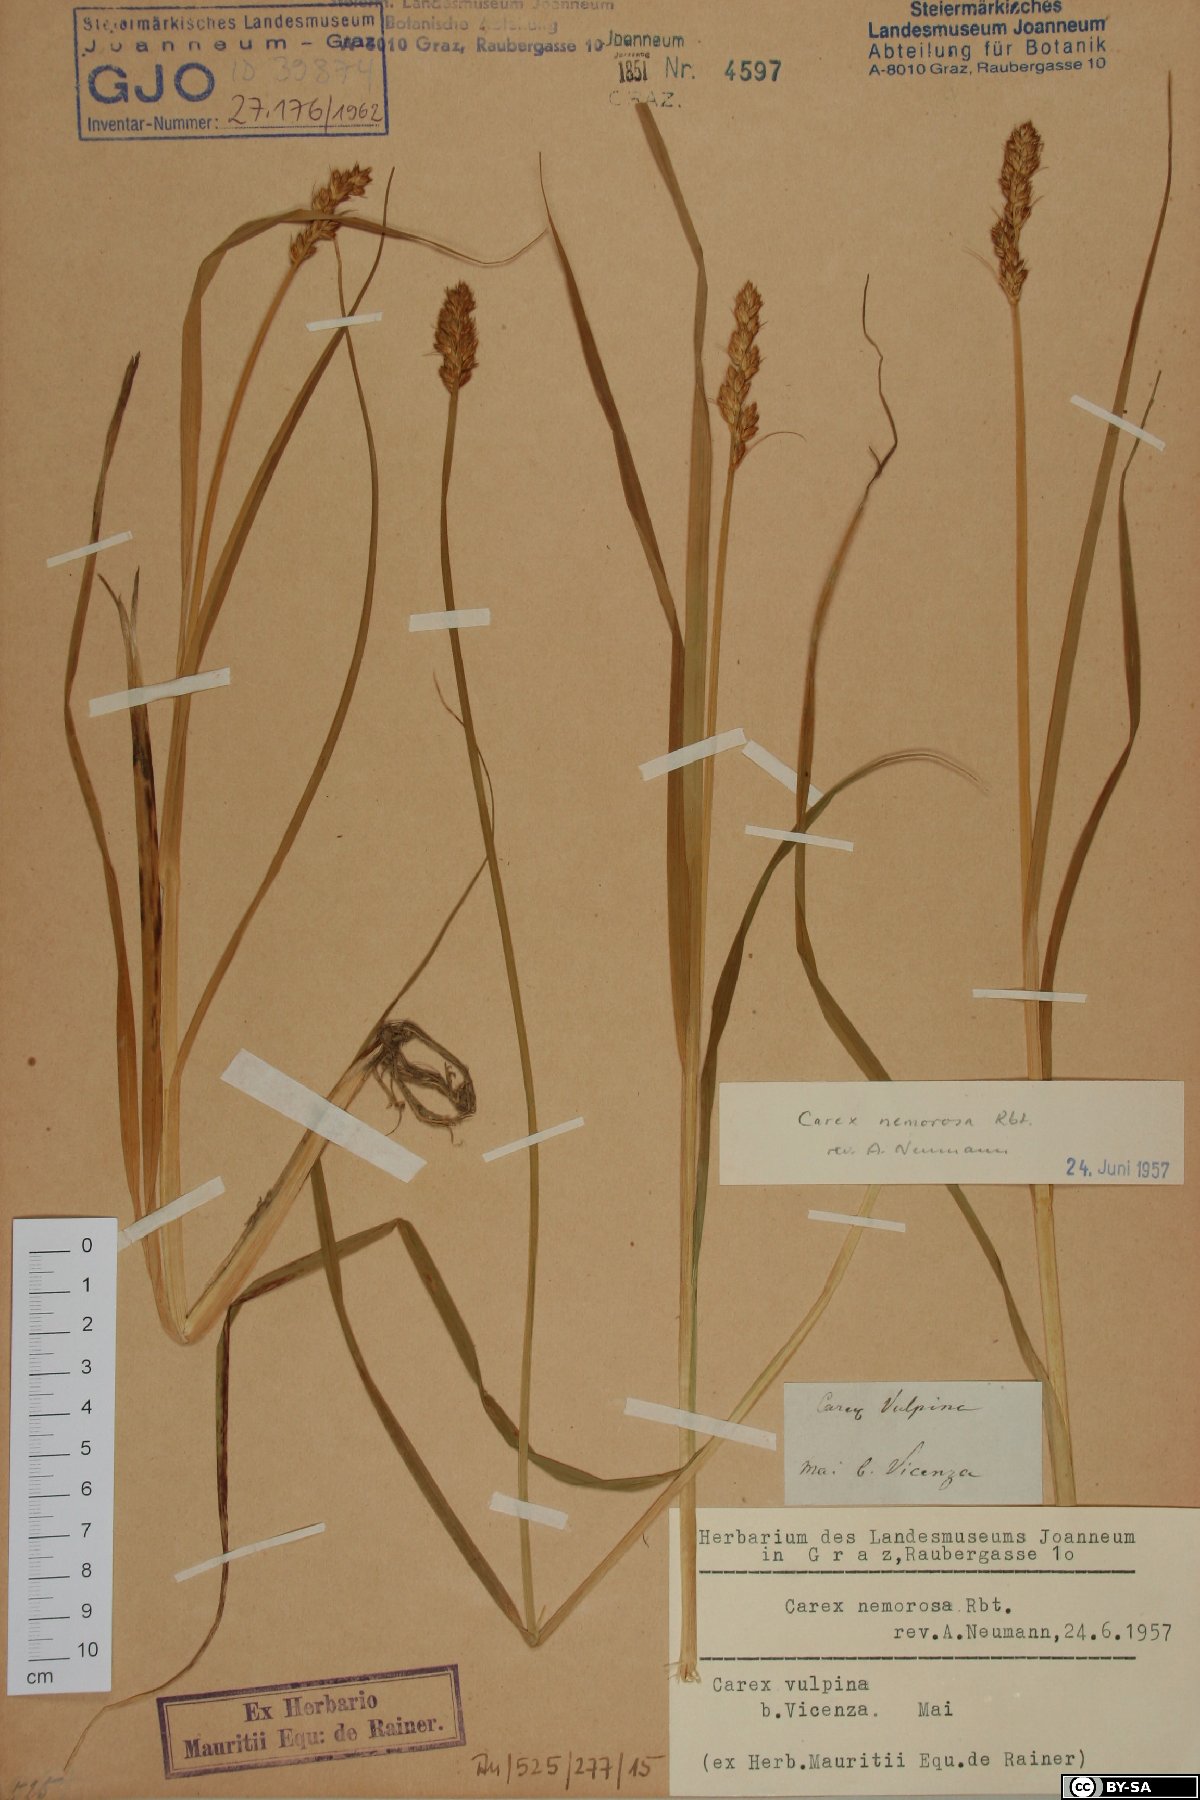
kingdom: Plantae
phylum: Tracheophyta
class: Liliopsida
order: Poales
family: Cyperaceae
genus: Carex
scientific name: Carex otrubae
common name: False fox-sedge
